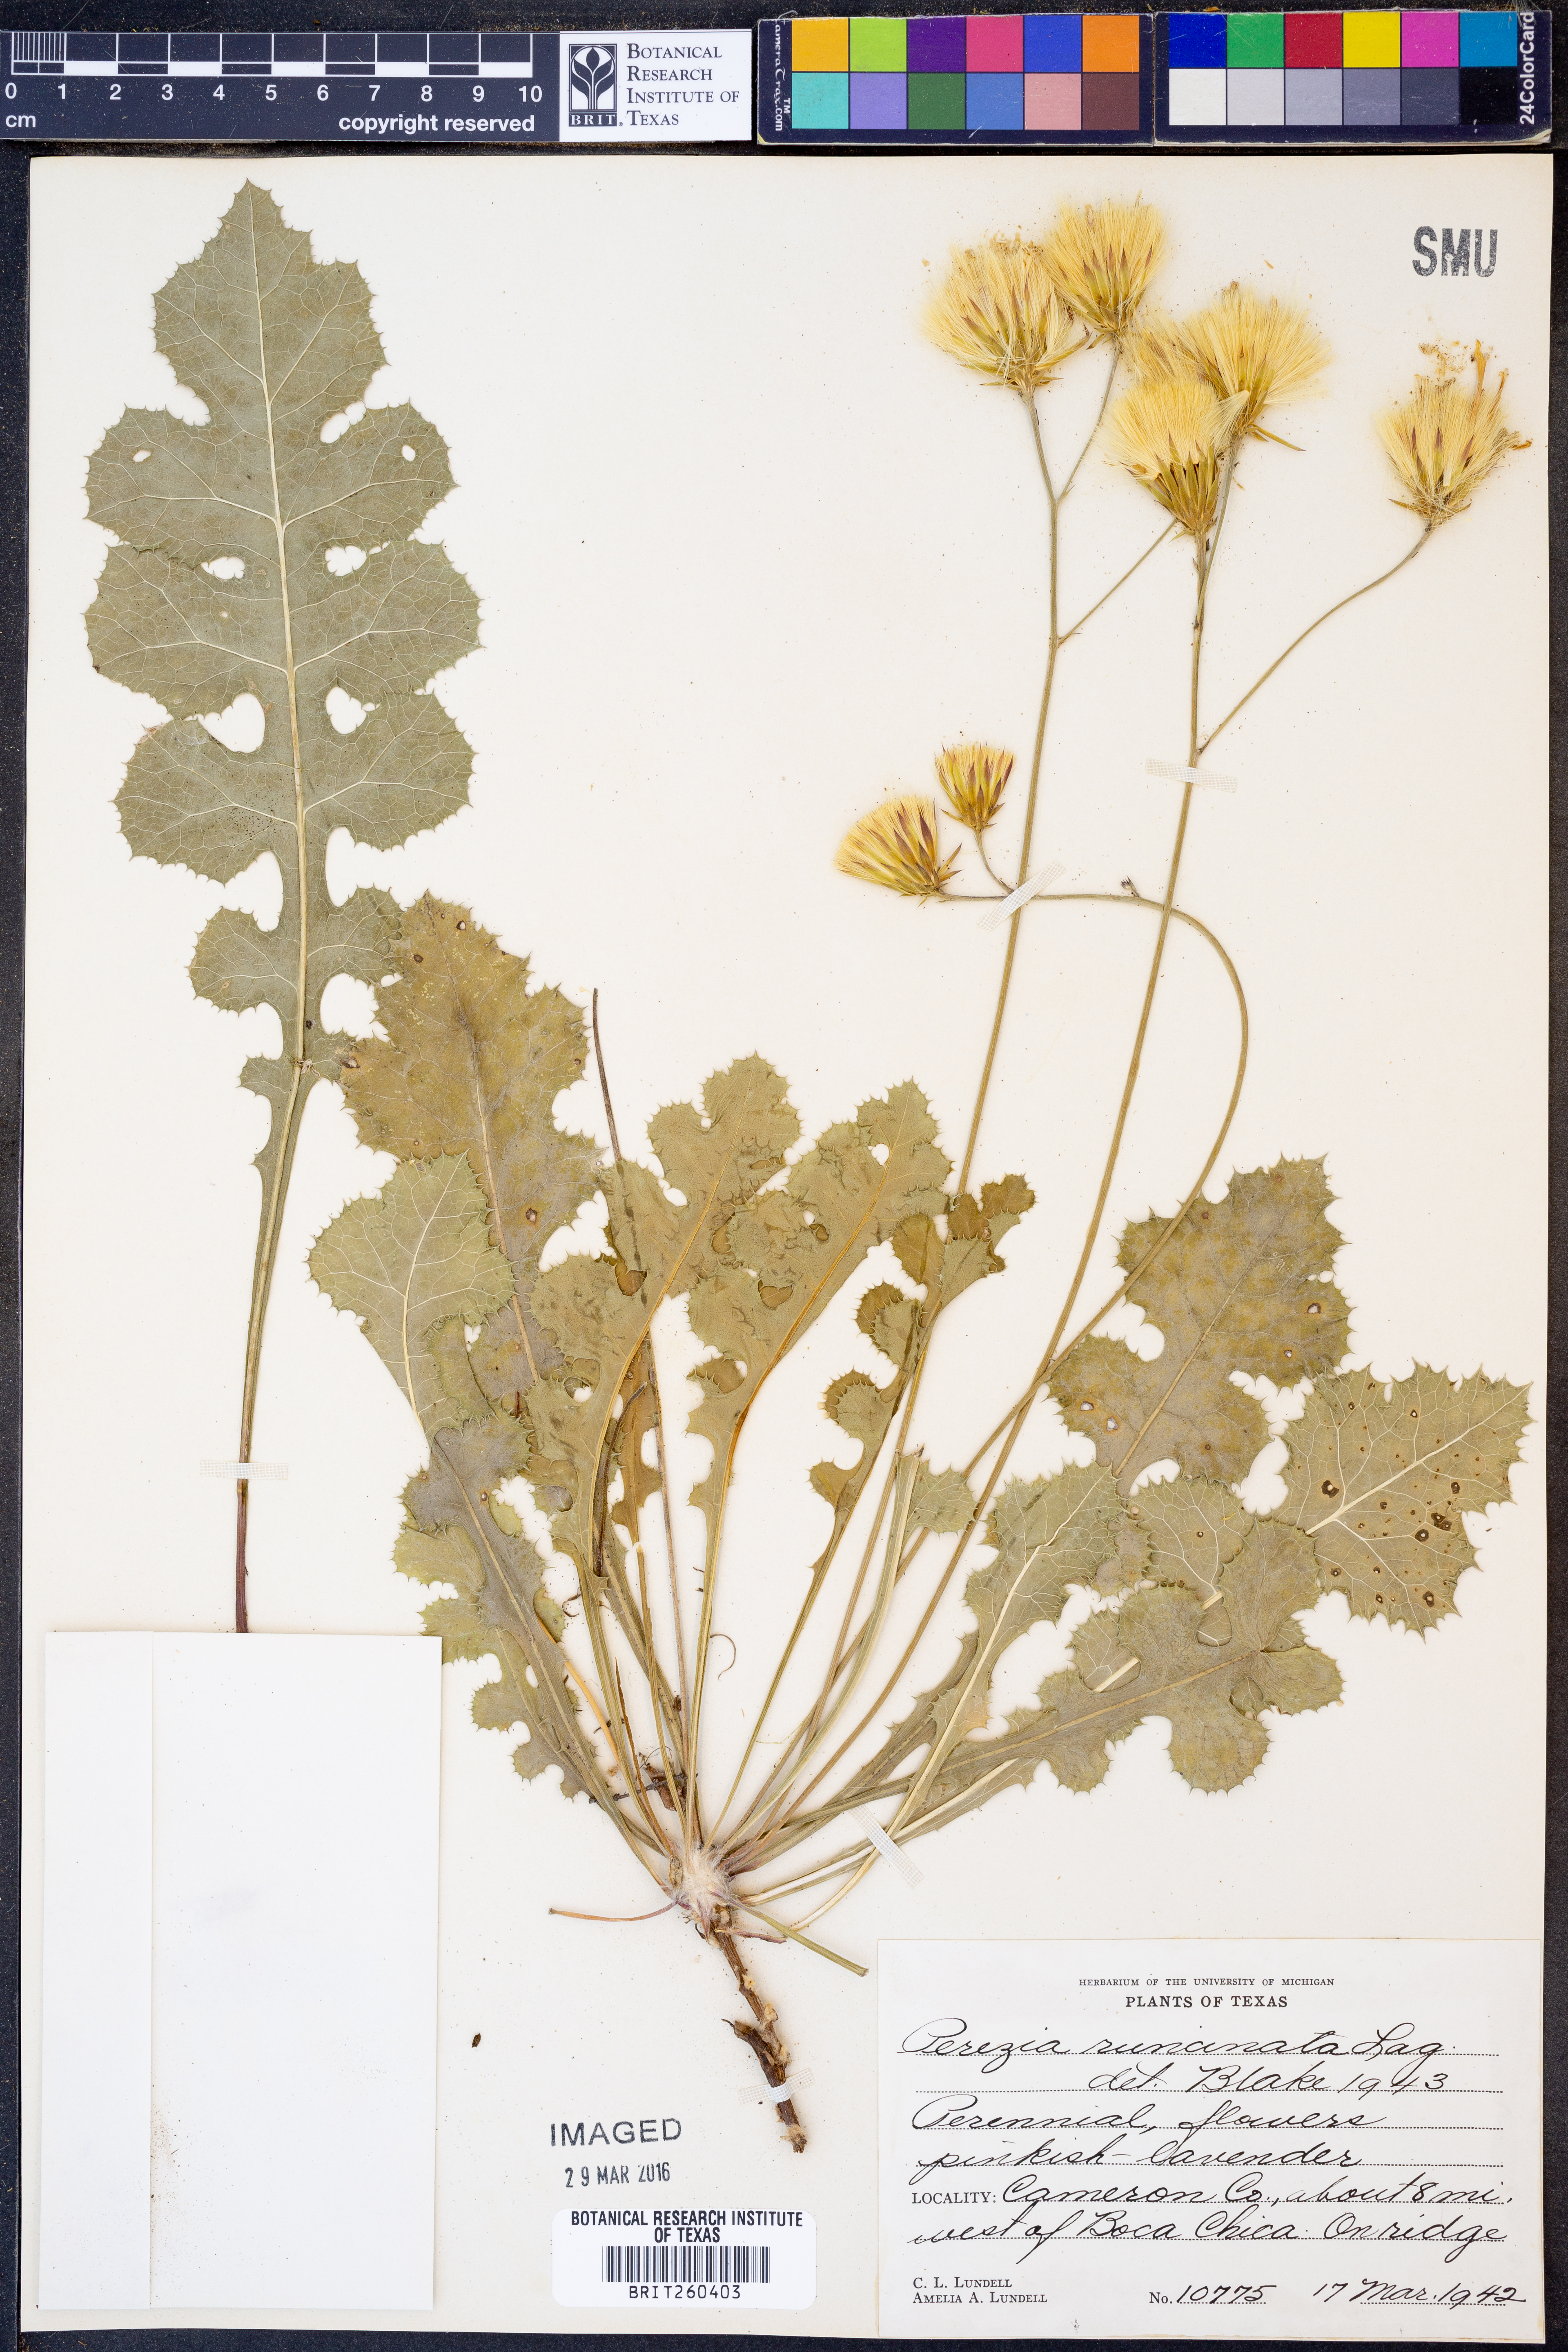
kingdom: Plantae
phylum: Tracheophyta
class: Magnoliopsida
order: Asterales
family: Asteraceae
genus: Acourtia
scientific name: Acourtia runcinata
